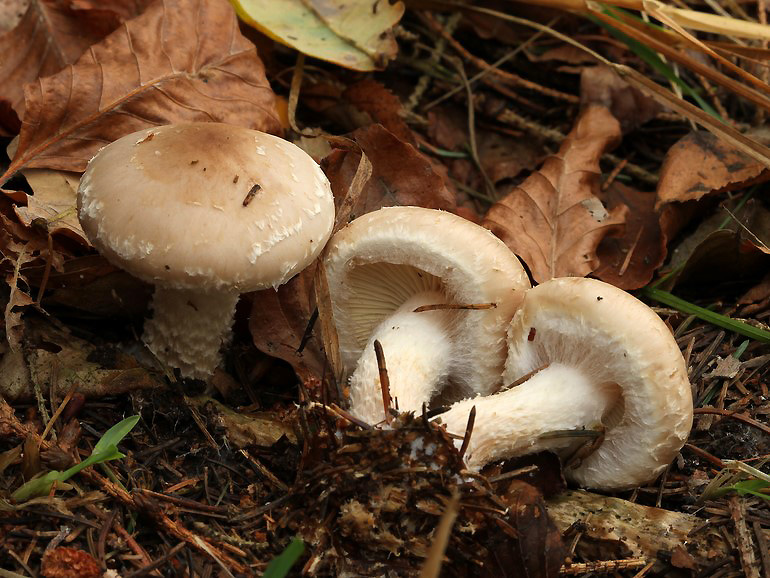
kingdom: Fungi
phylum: Basidiomycota
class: Agaricomycetes
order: Agaricales
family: Strophariaceae
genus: Pholiota
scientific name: Pholiota lenta
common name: løv-skælhat
